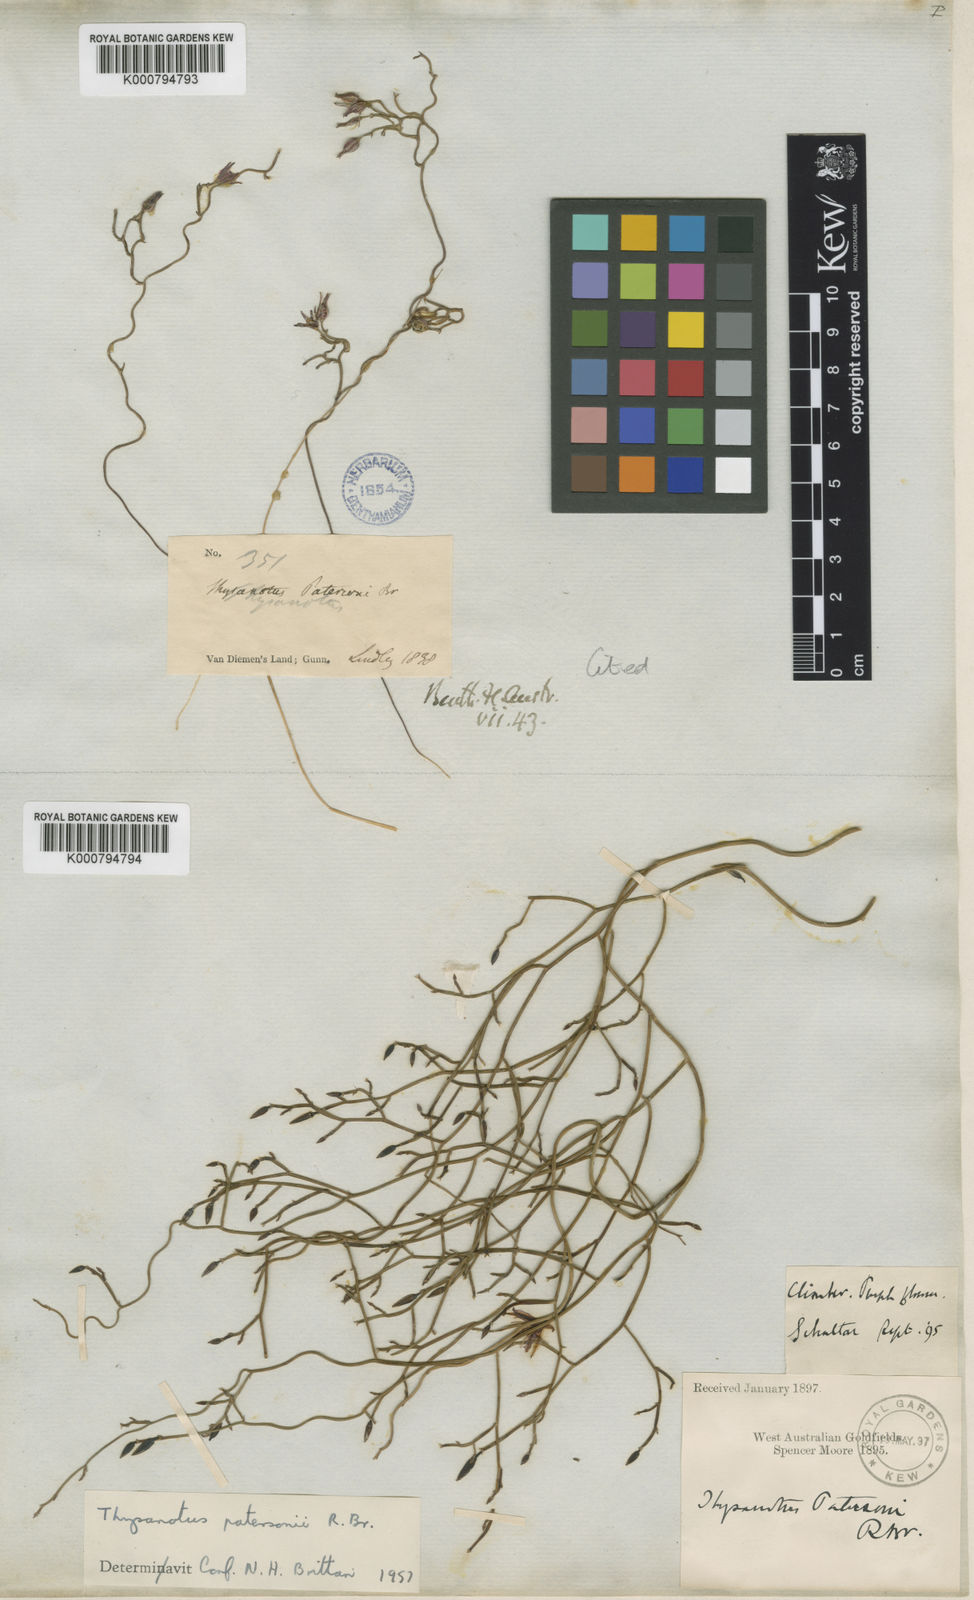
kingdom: Plantae
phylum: Tracheophyta
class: Liliopsida
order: Asparagales
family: Asparagaceae
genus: Thysanotus
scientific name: Thysanotus patersonii
